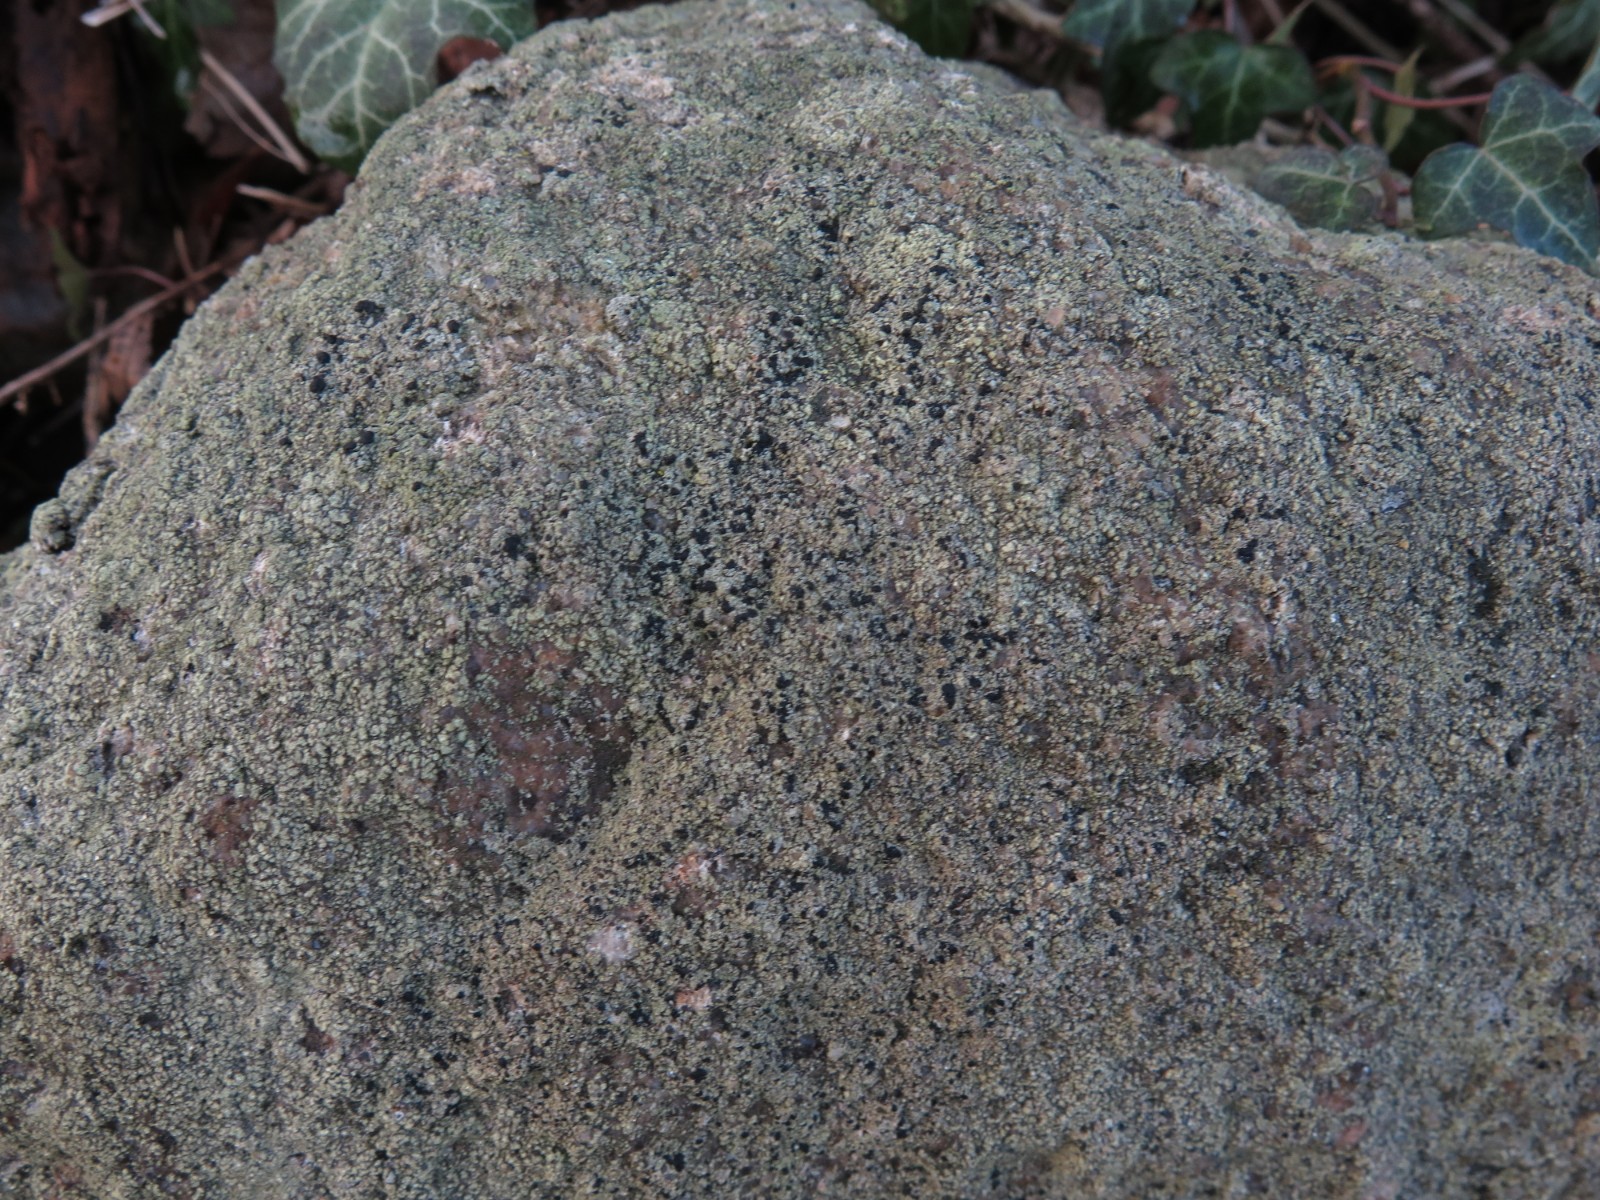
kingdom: Fungi
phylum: Ascomycota
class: Lecanoromycetes
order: Lecanorales
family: Lecanoraceae
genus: Lecidella
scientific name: Lecidella scabra
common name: skurvet skivelav
